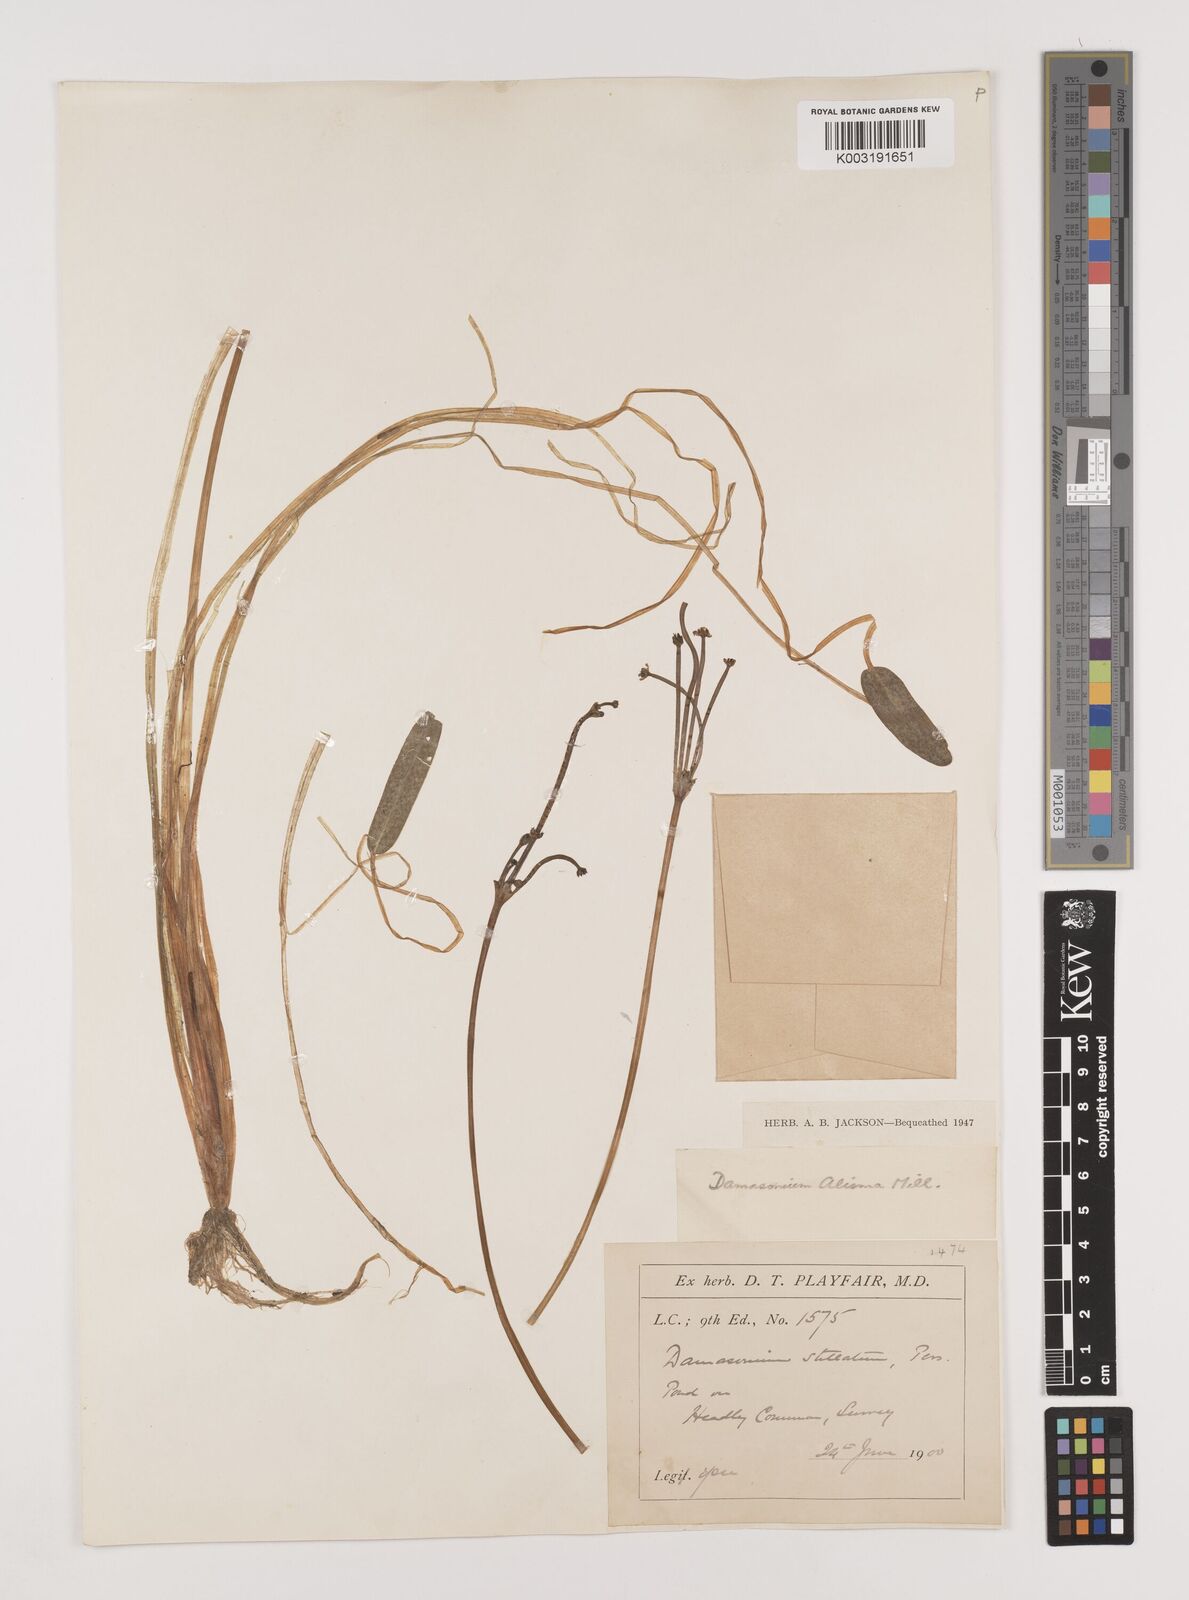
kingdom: Plantae
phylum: Tracheophyta
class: Liliopsida
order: Alismatales
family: Alismataceae
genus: Damasonium
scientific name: Damasonium alisma
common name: Starfruit
